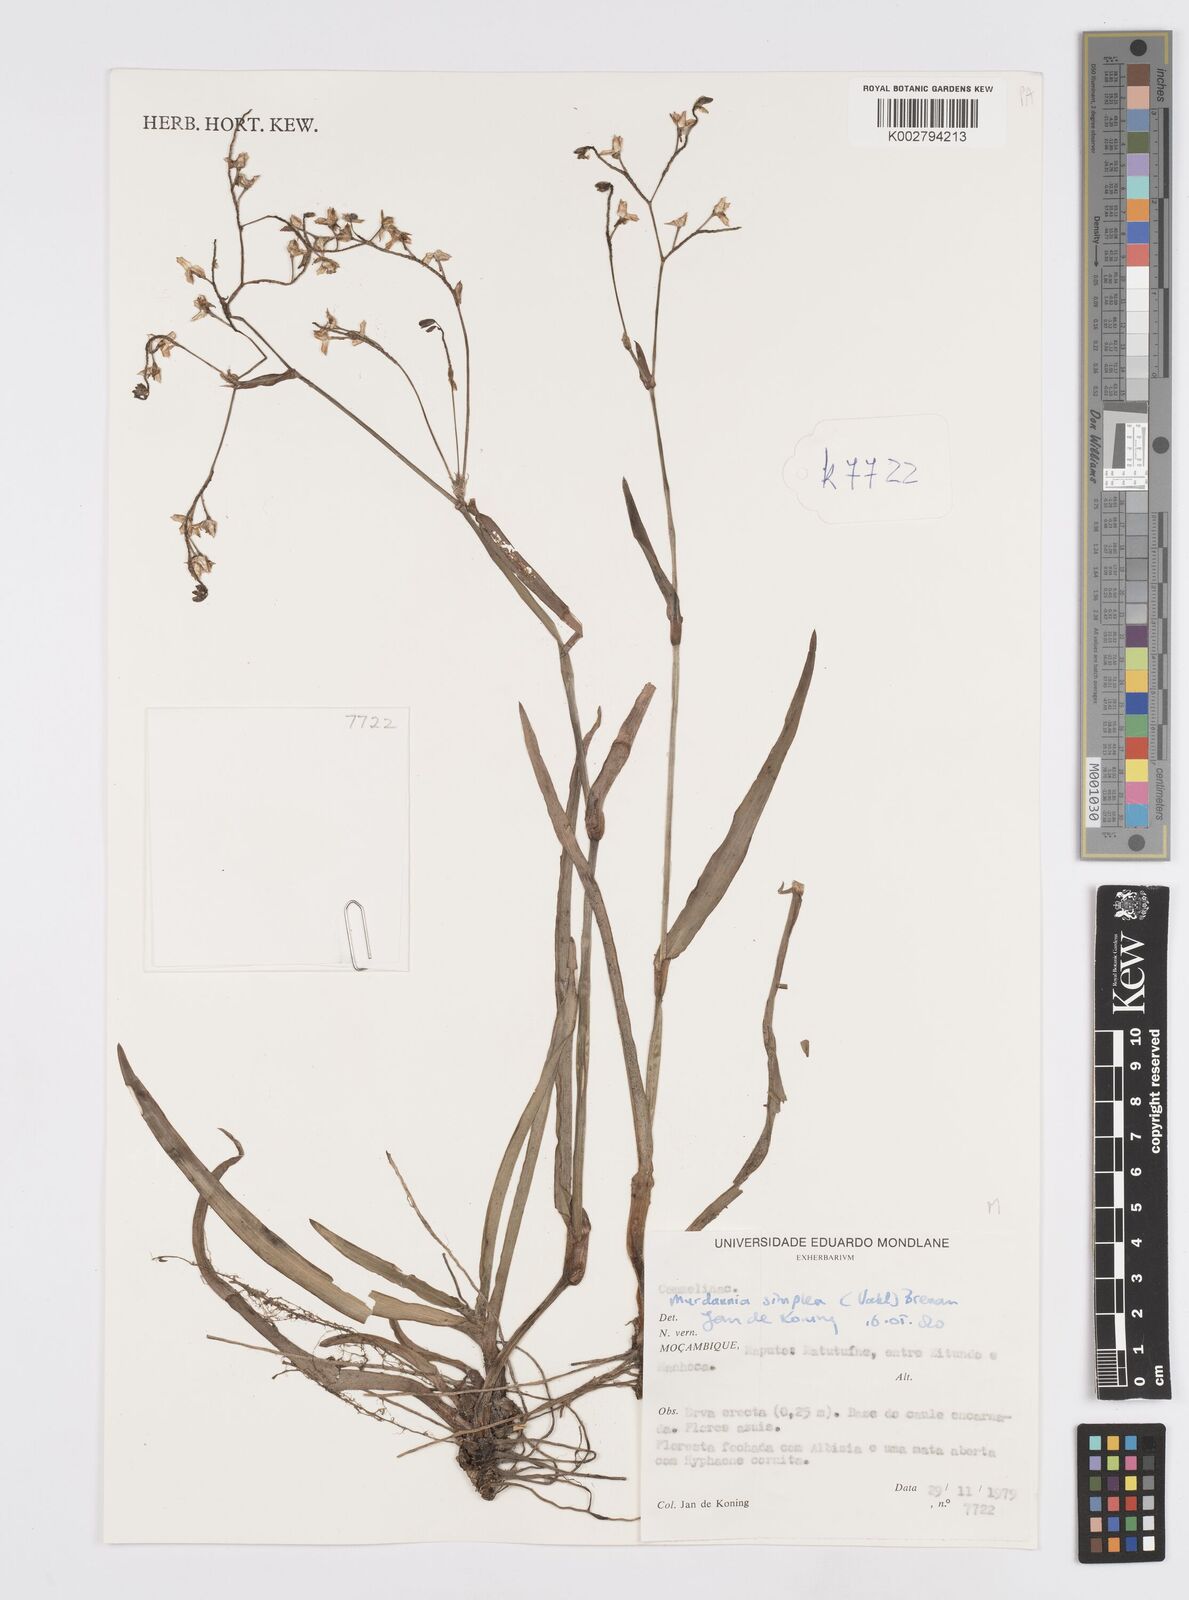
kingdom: Plantae
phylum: Tracheophyta
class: Liliopsida
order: Commelinales
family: Commelinaceae
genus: Murdannia
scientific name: Murdannia simplex
